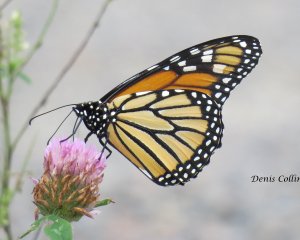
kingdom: Animalia
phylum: Arthropoda
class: Insecta
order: Lepidoptera
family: Nymphalidae
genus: Danaus
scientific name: Danaus plexippus
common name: Monarch
